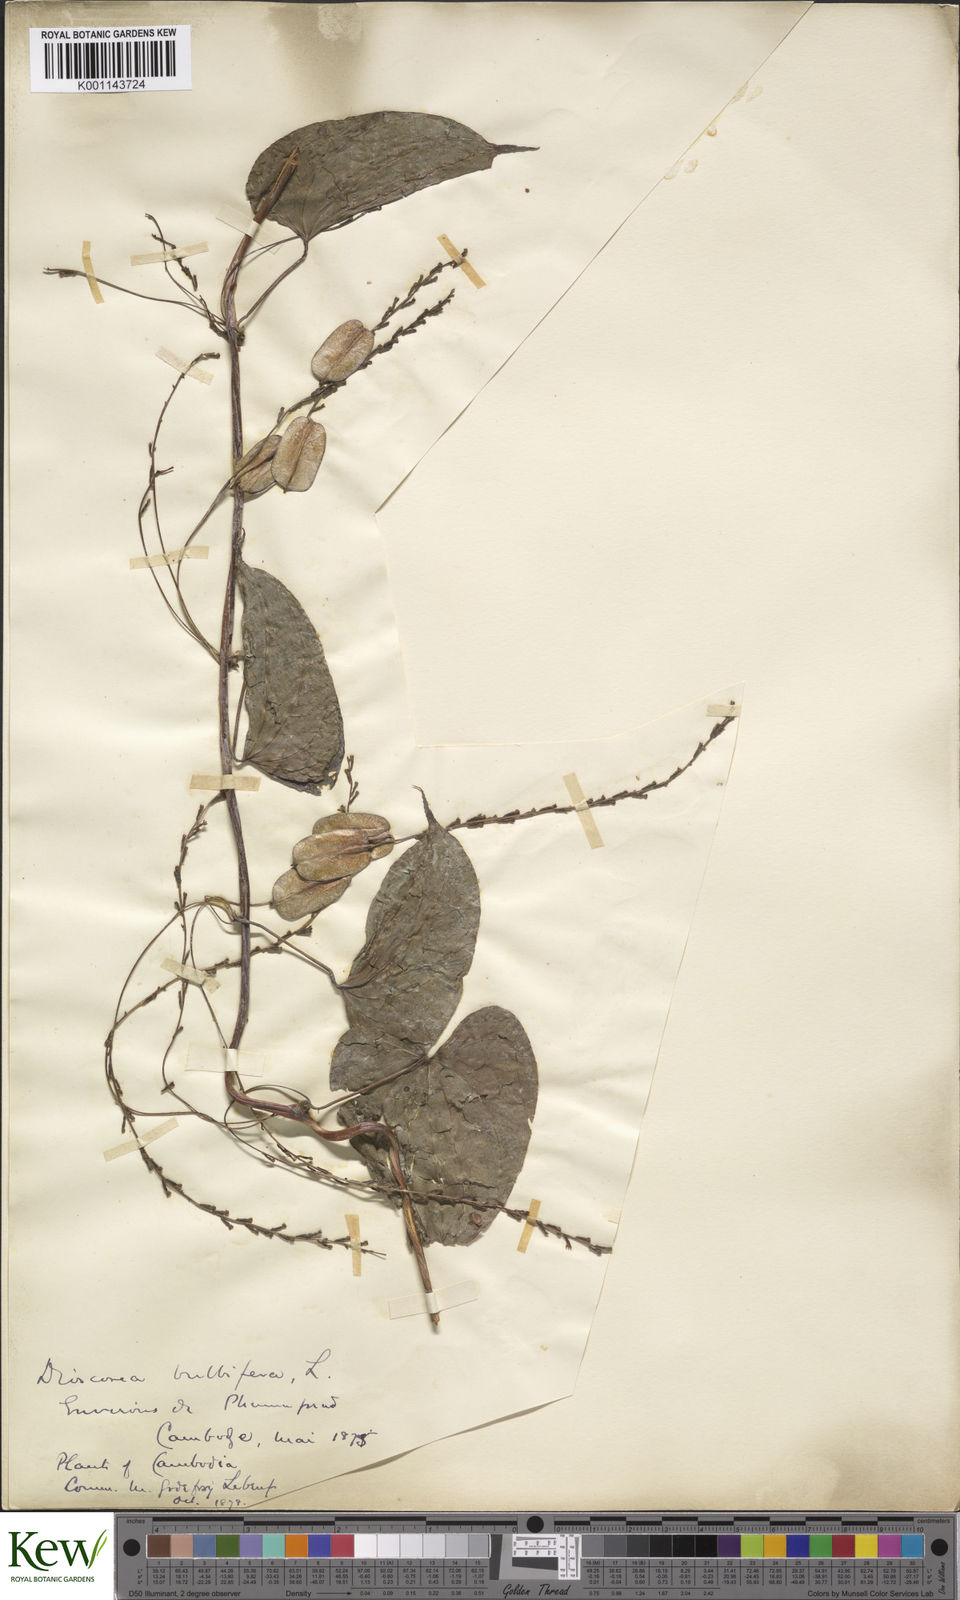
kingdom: Plantae
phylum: Tracheophyta
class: Liliopsida
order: Dioscoreales
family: Dioscoreaceae
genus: Dioscorea
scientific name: Dioscorea bulbifera
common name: Air yam
